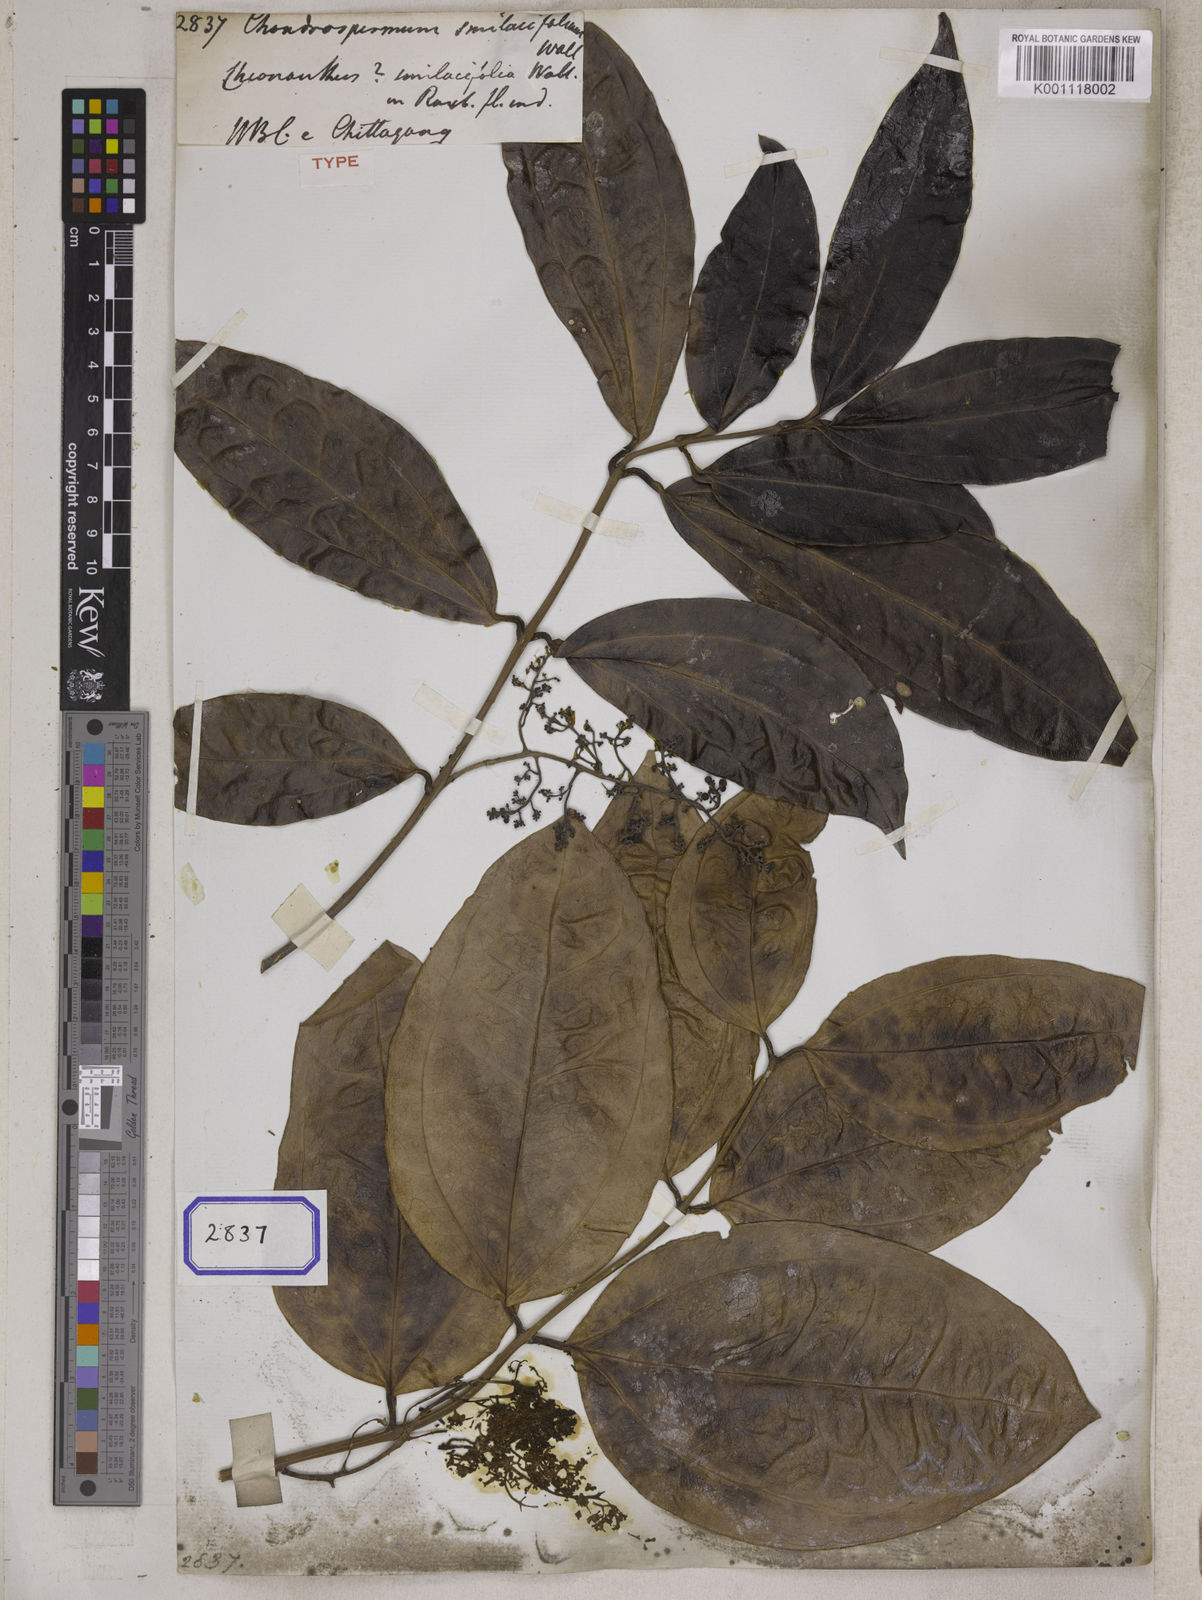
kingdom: Plantae
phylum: Tracheophyta
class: Magnoliopsida
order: Lamiales
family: Oleaceae
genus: Myxopyrum
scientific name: Myxopyrum smilacifolium
